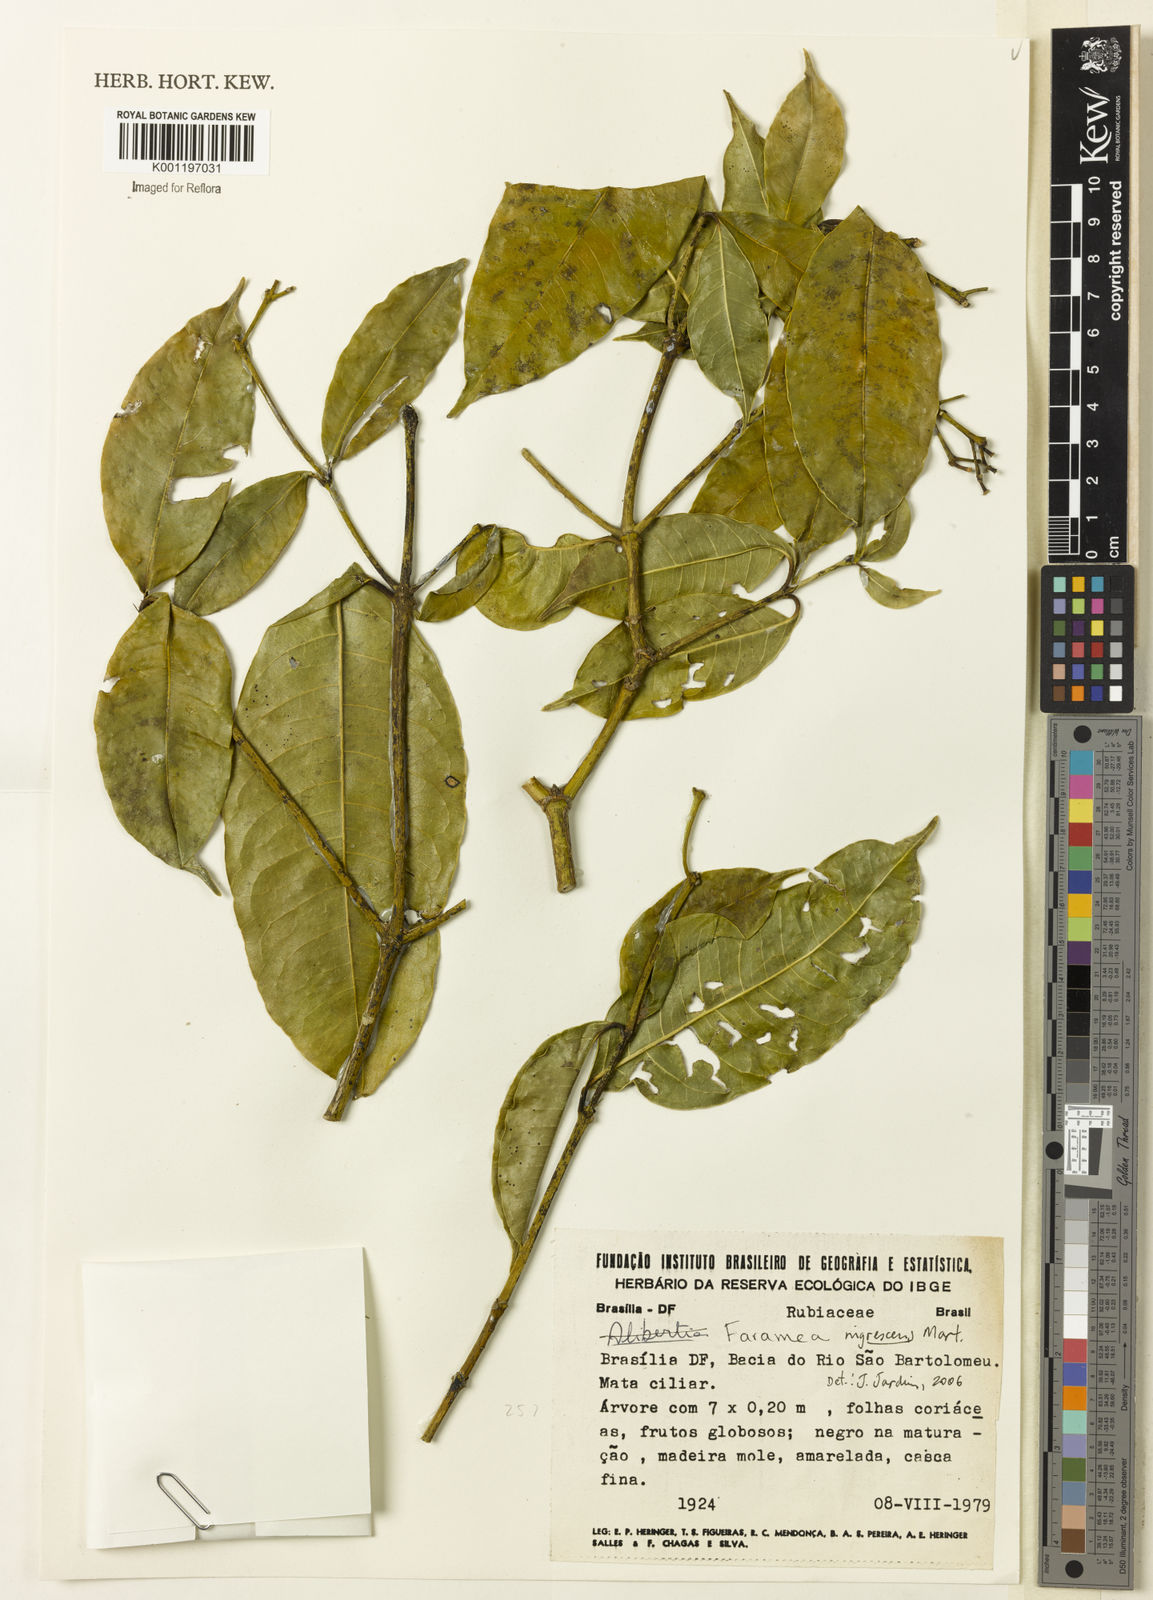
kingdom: Plantae
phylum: Tracheophyta
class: Magnoliopsida
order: Gentianales
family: Rubiaceae
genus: Faramea
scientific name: Faramea nigrescens
